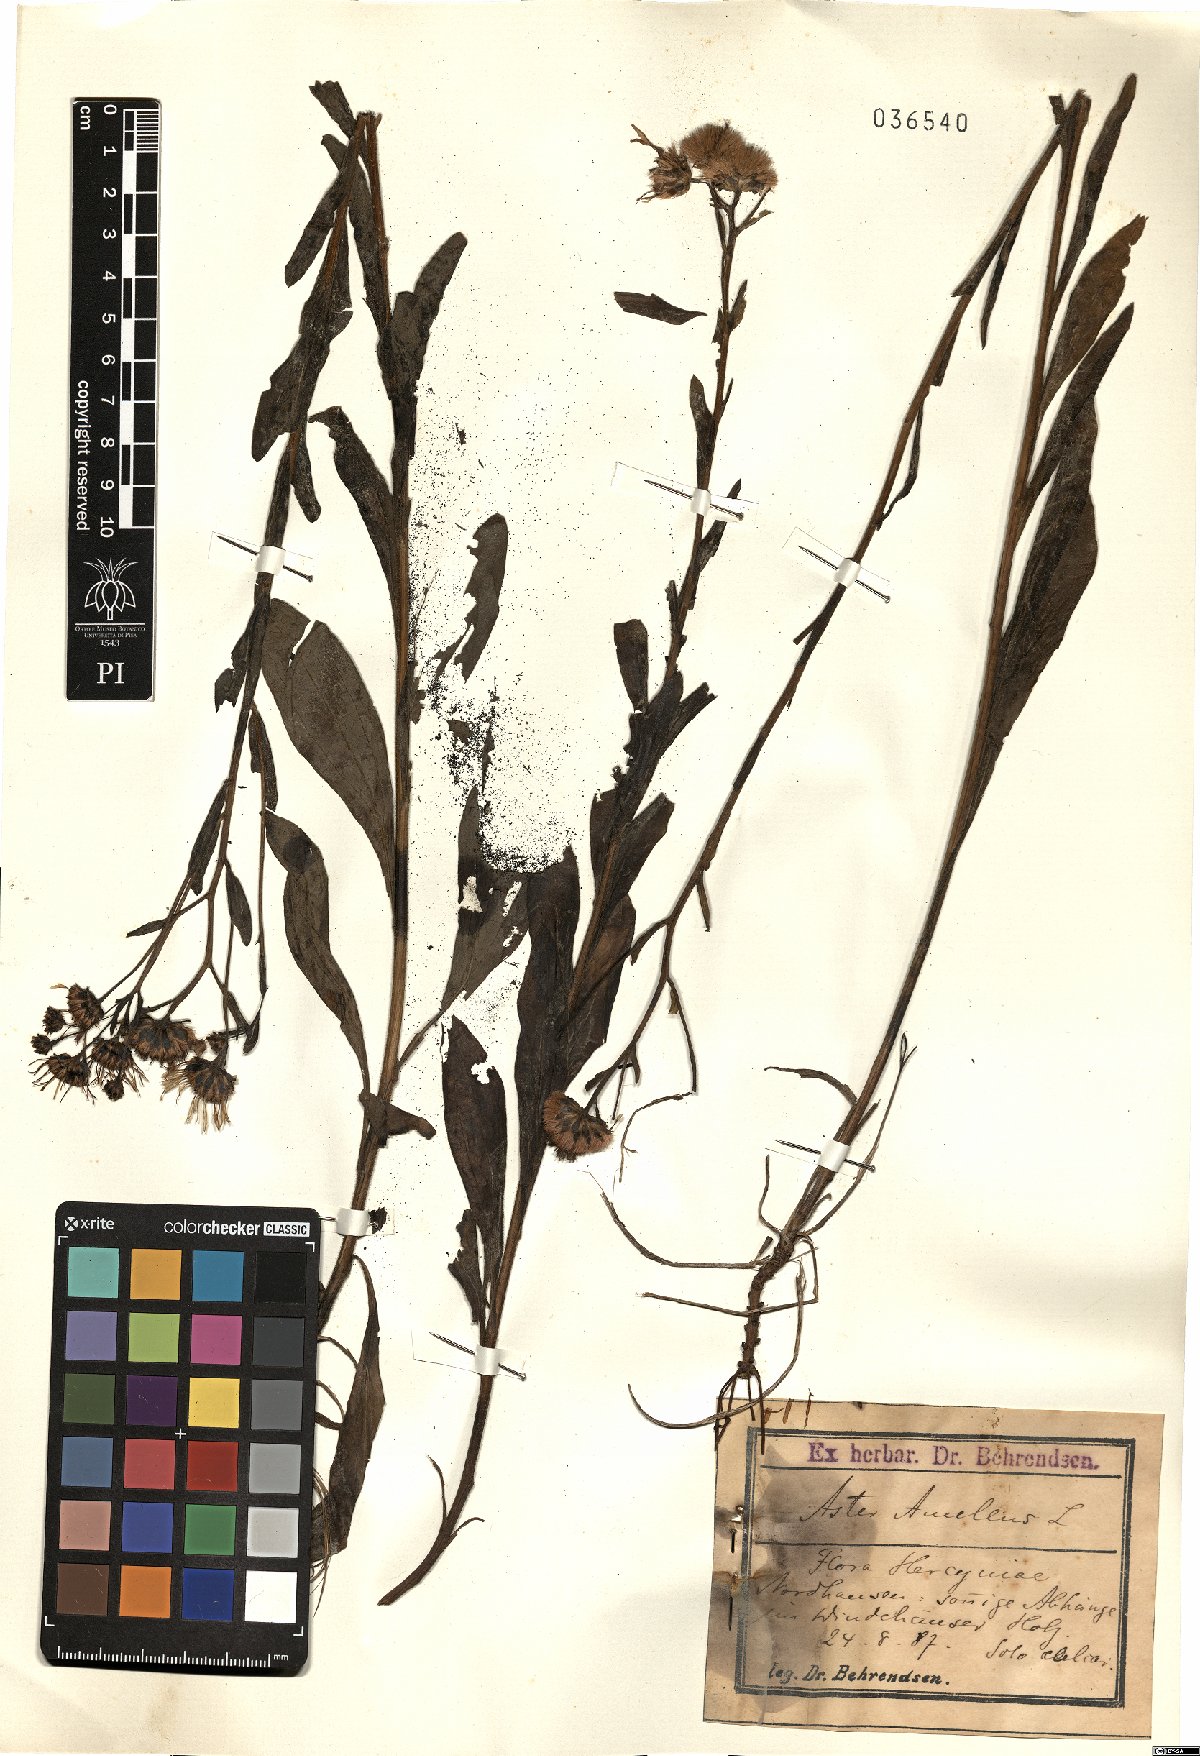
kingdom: Plantae
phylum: Tracheophyta
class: Magnoliopsida
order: Asterales
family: Asteraceae
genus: Aster
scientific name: Aster amellus
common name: European michaelmas daisy
